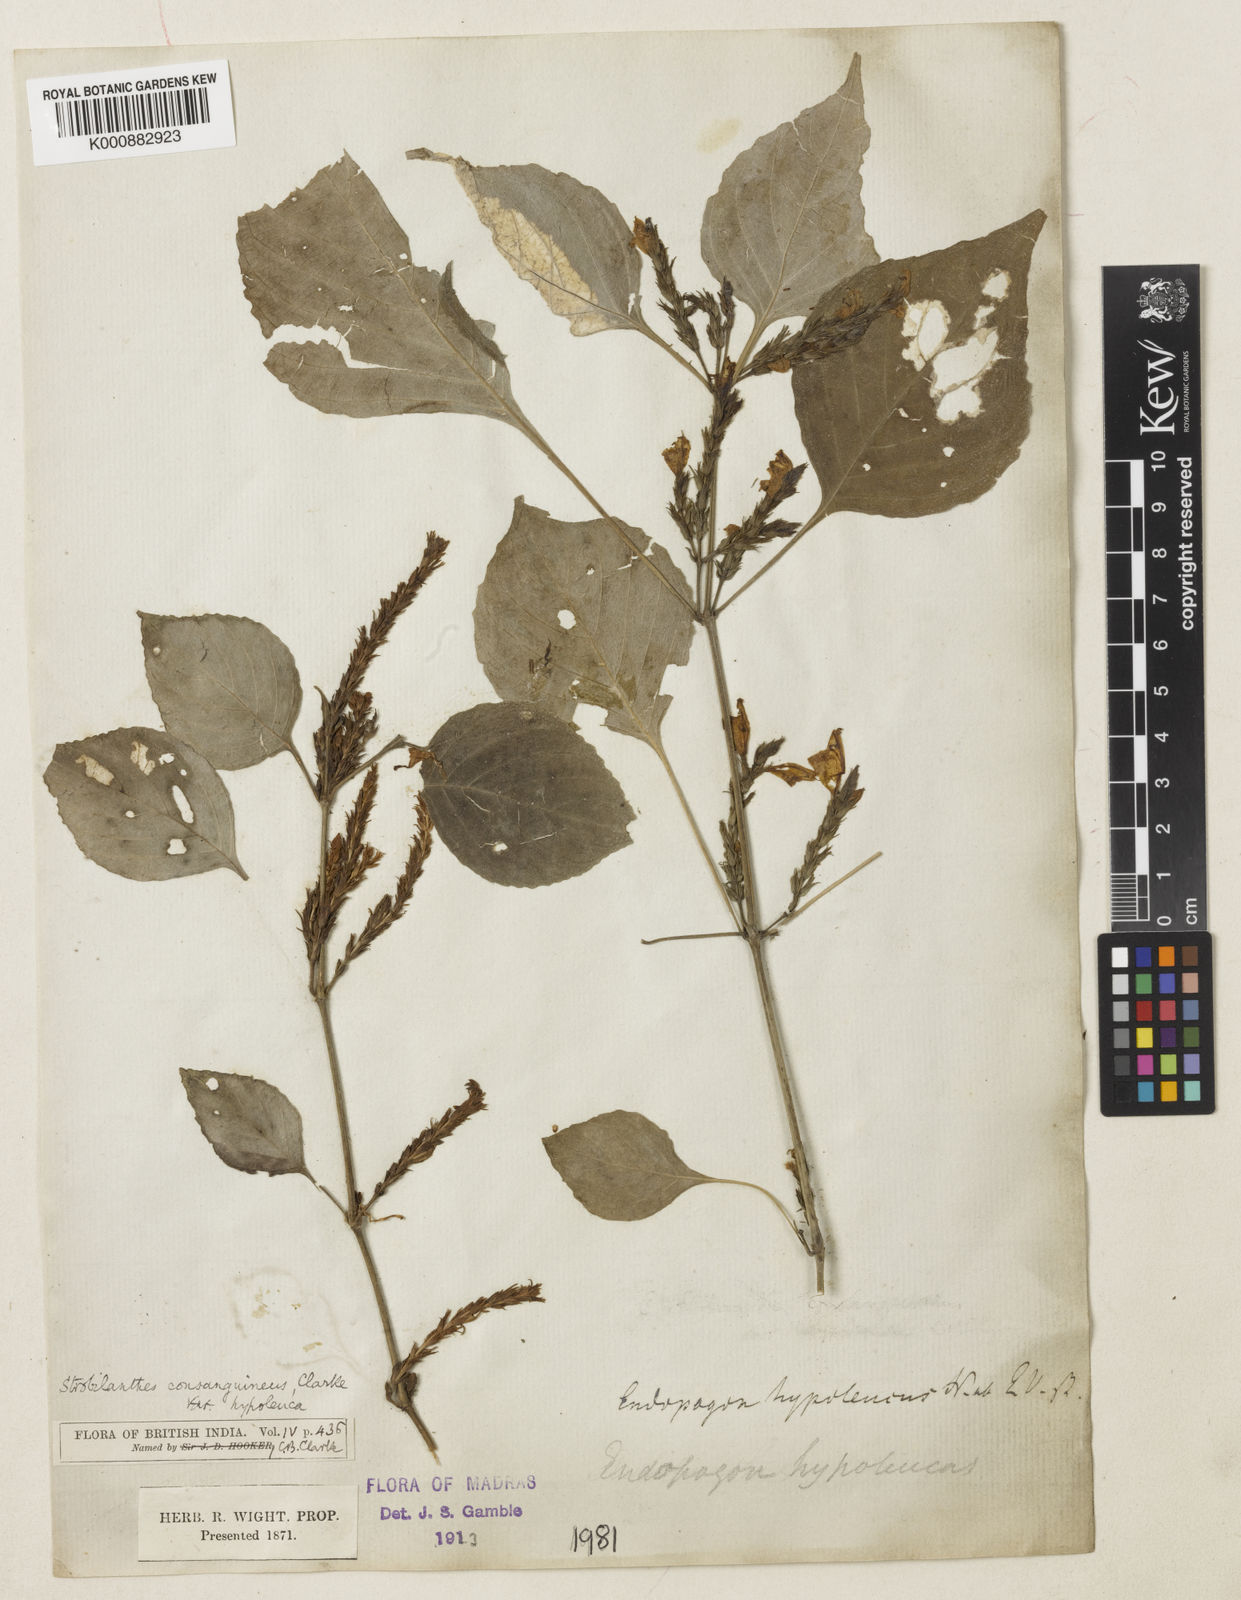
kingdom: Plantae
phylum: Tracheophyta
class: Magnoliopsida
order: Lamiales
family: Acanthaceae
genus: Strobilanthes
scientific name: Strobilanthes diandra
